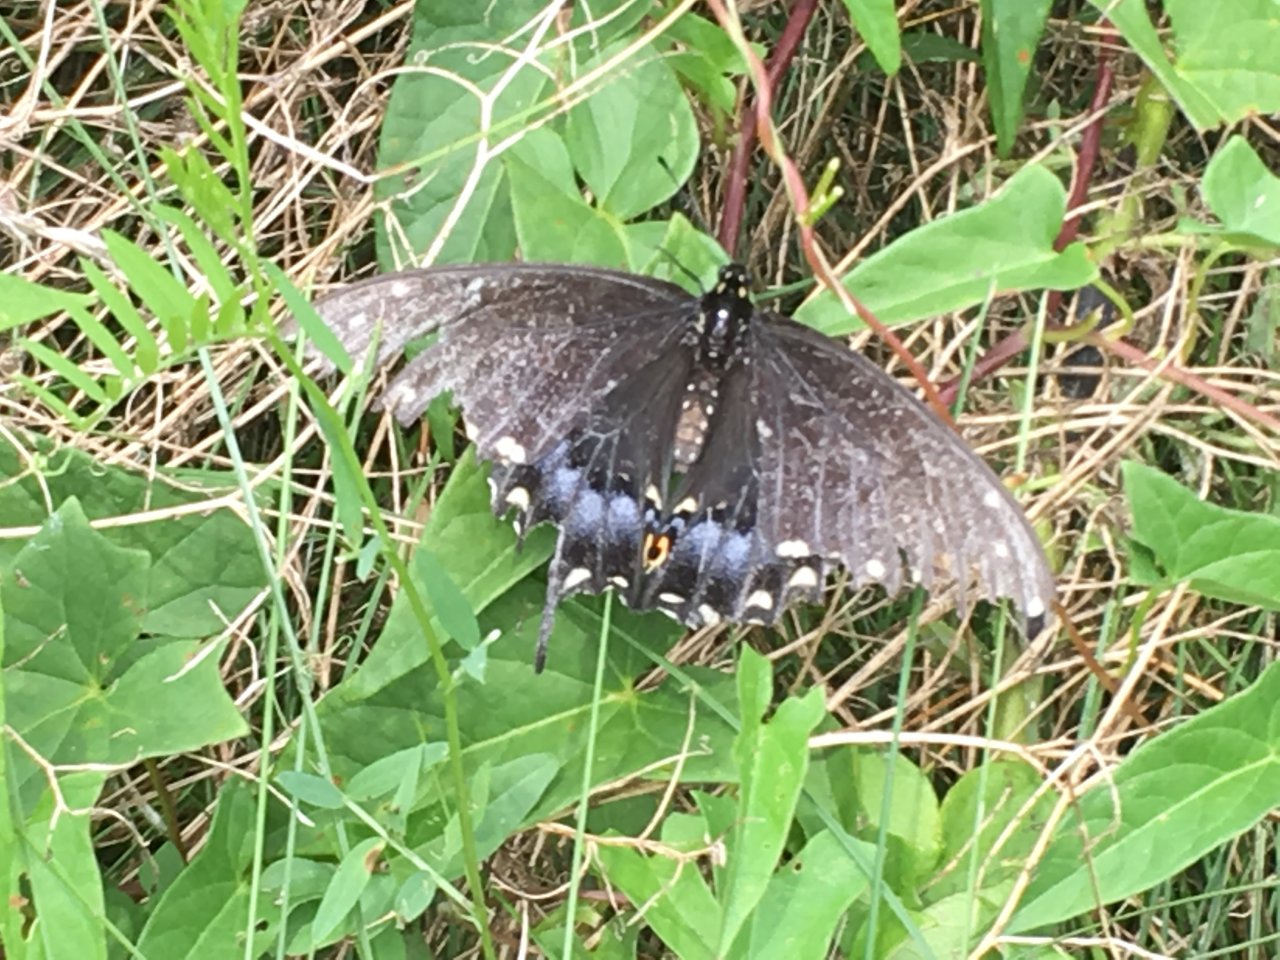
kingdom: Animalia
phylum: Arthropoda
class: Insecta
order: Lepidoptera
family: Papilionidae
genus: Papilio
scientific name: Papilio polyxenes
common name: Black Swallowtail
